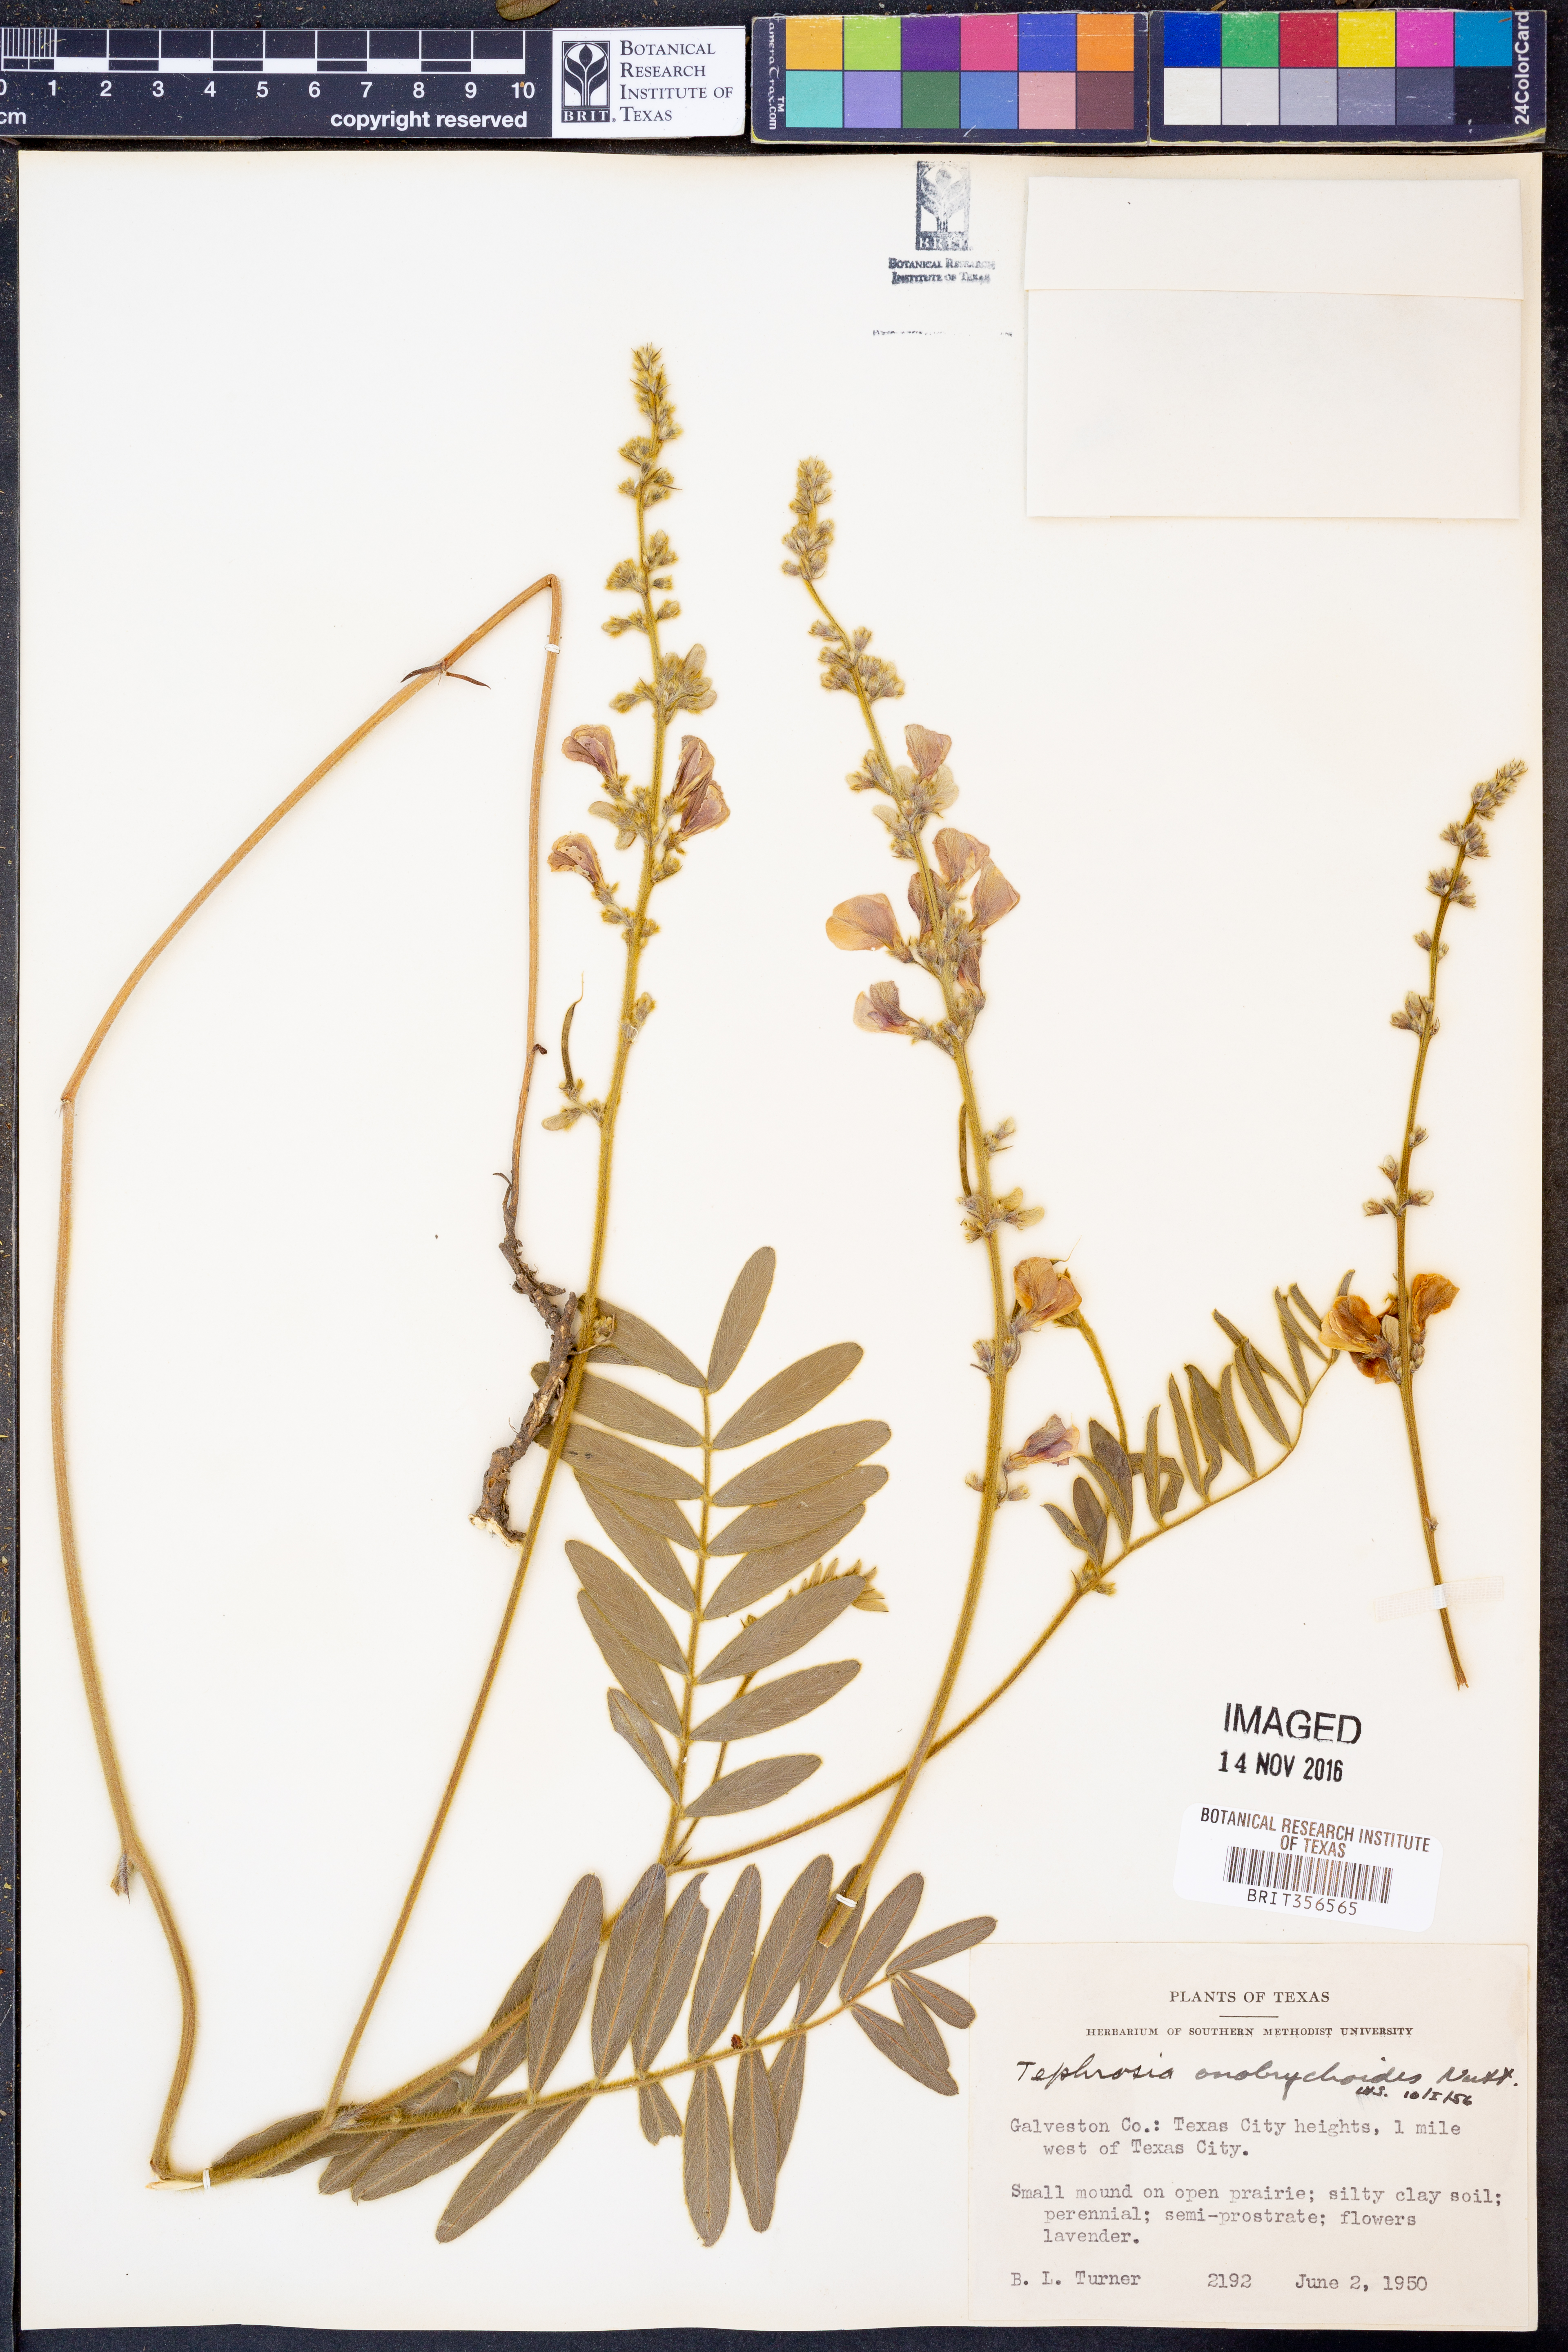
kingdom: Plantae
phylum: Tracheophyta
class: Magnoliopsida
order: Fabales
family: Fabaceae
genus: Tephrosia
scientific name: Tephrosia onobrychoides
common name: Multi-bloom hoary-pea
